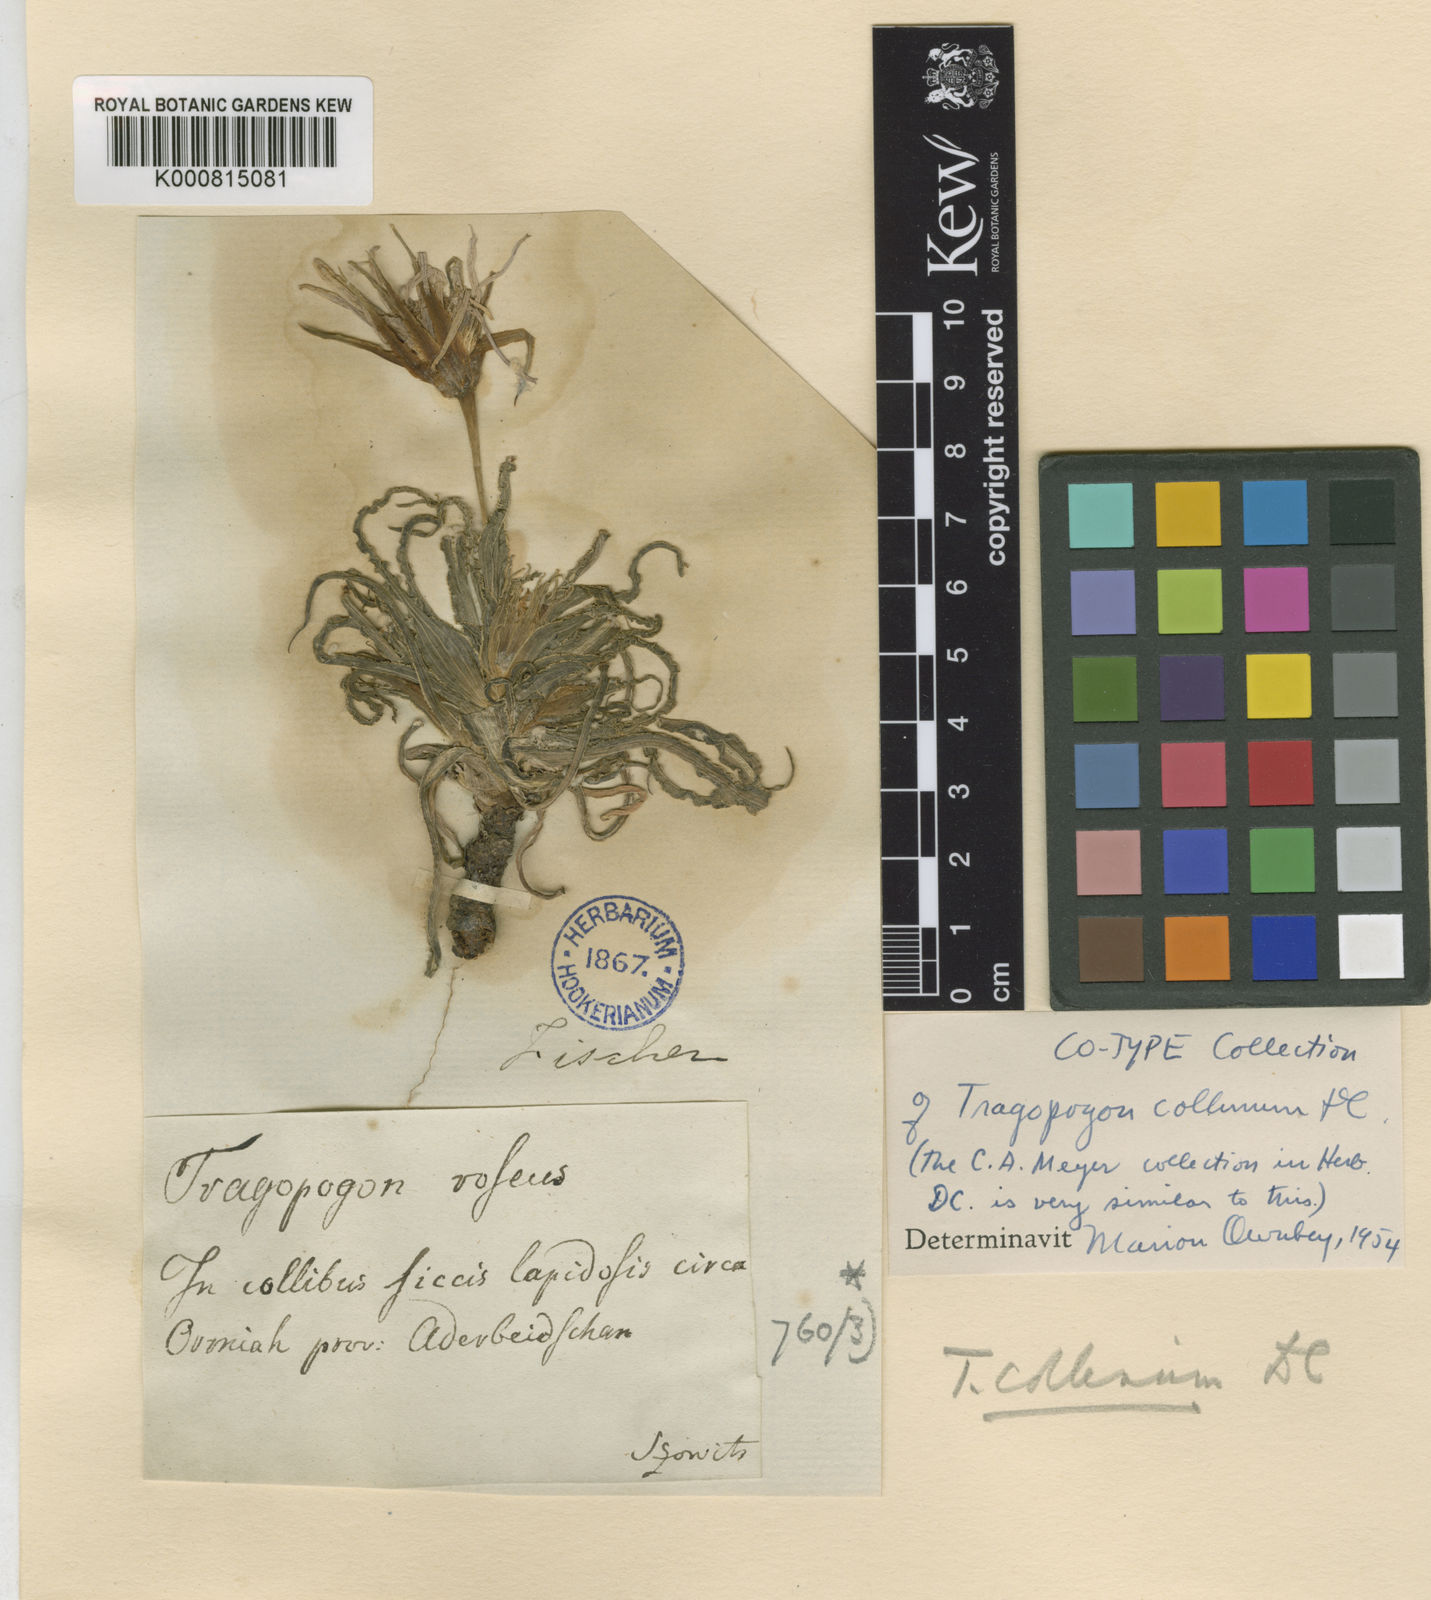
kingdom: Plantae
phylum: Tracheophyta
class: Magnoliopsida
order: Asterales
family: Asteraceae
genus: Tragopogon
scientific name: Tragopogon collinus
